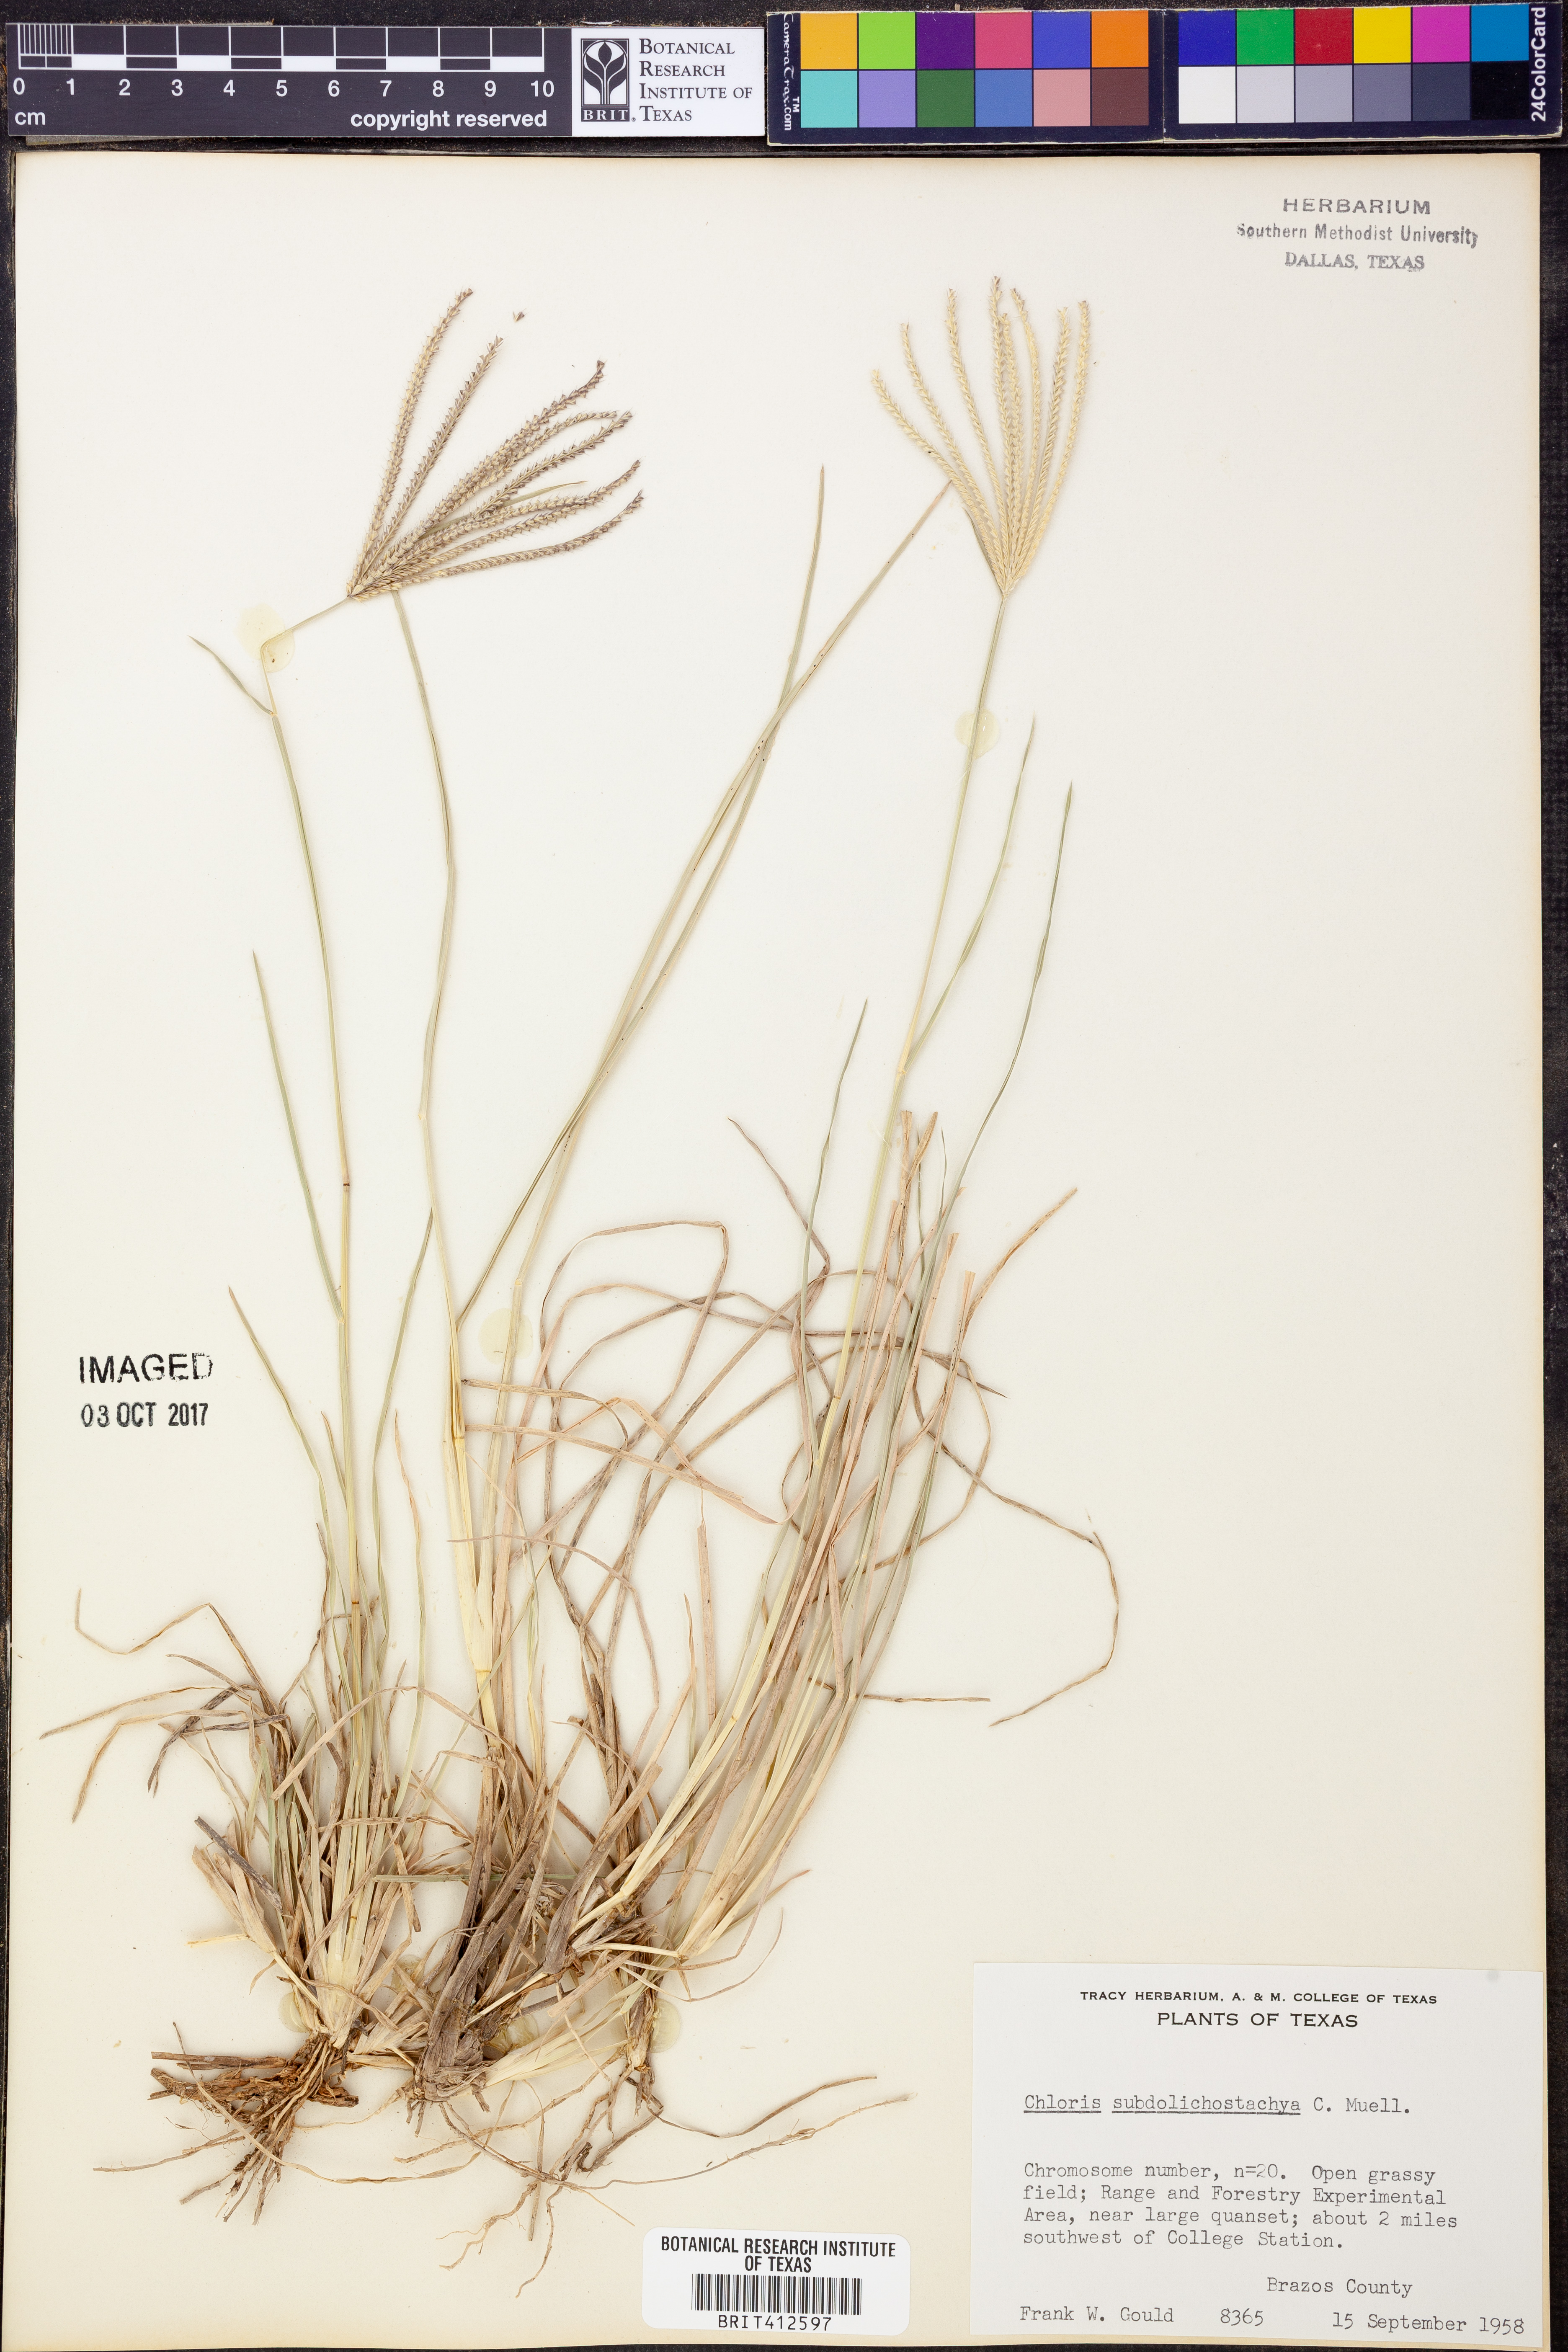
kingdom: Plantae
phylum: Tracheophyta
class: Liliopsida
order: Poales
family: Poaceae
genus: Chloris
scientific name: Chloris subdolichostachya
